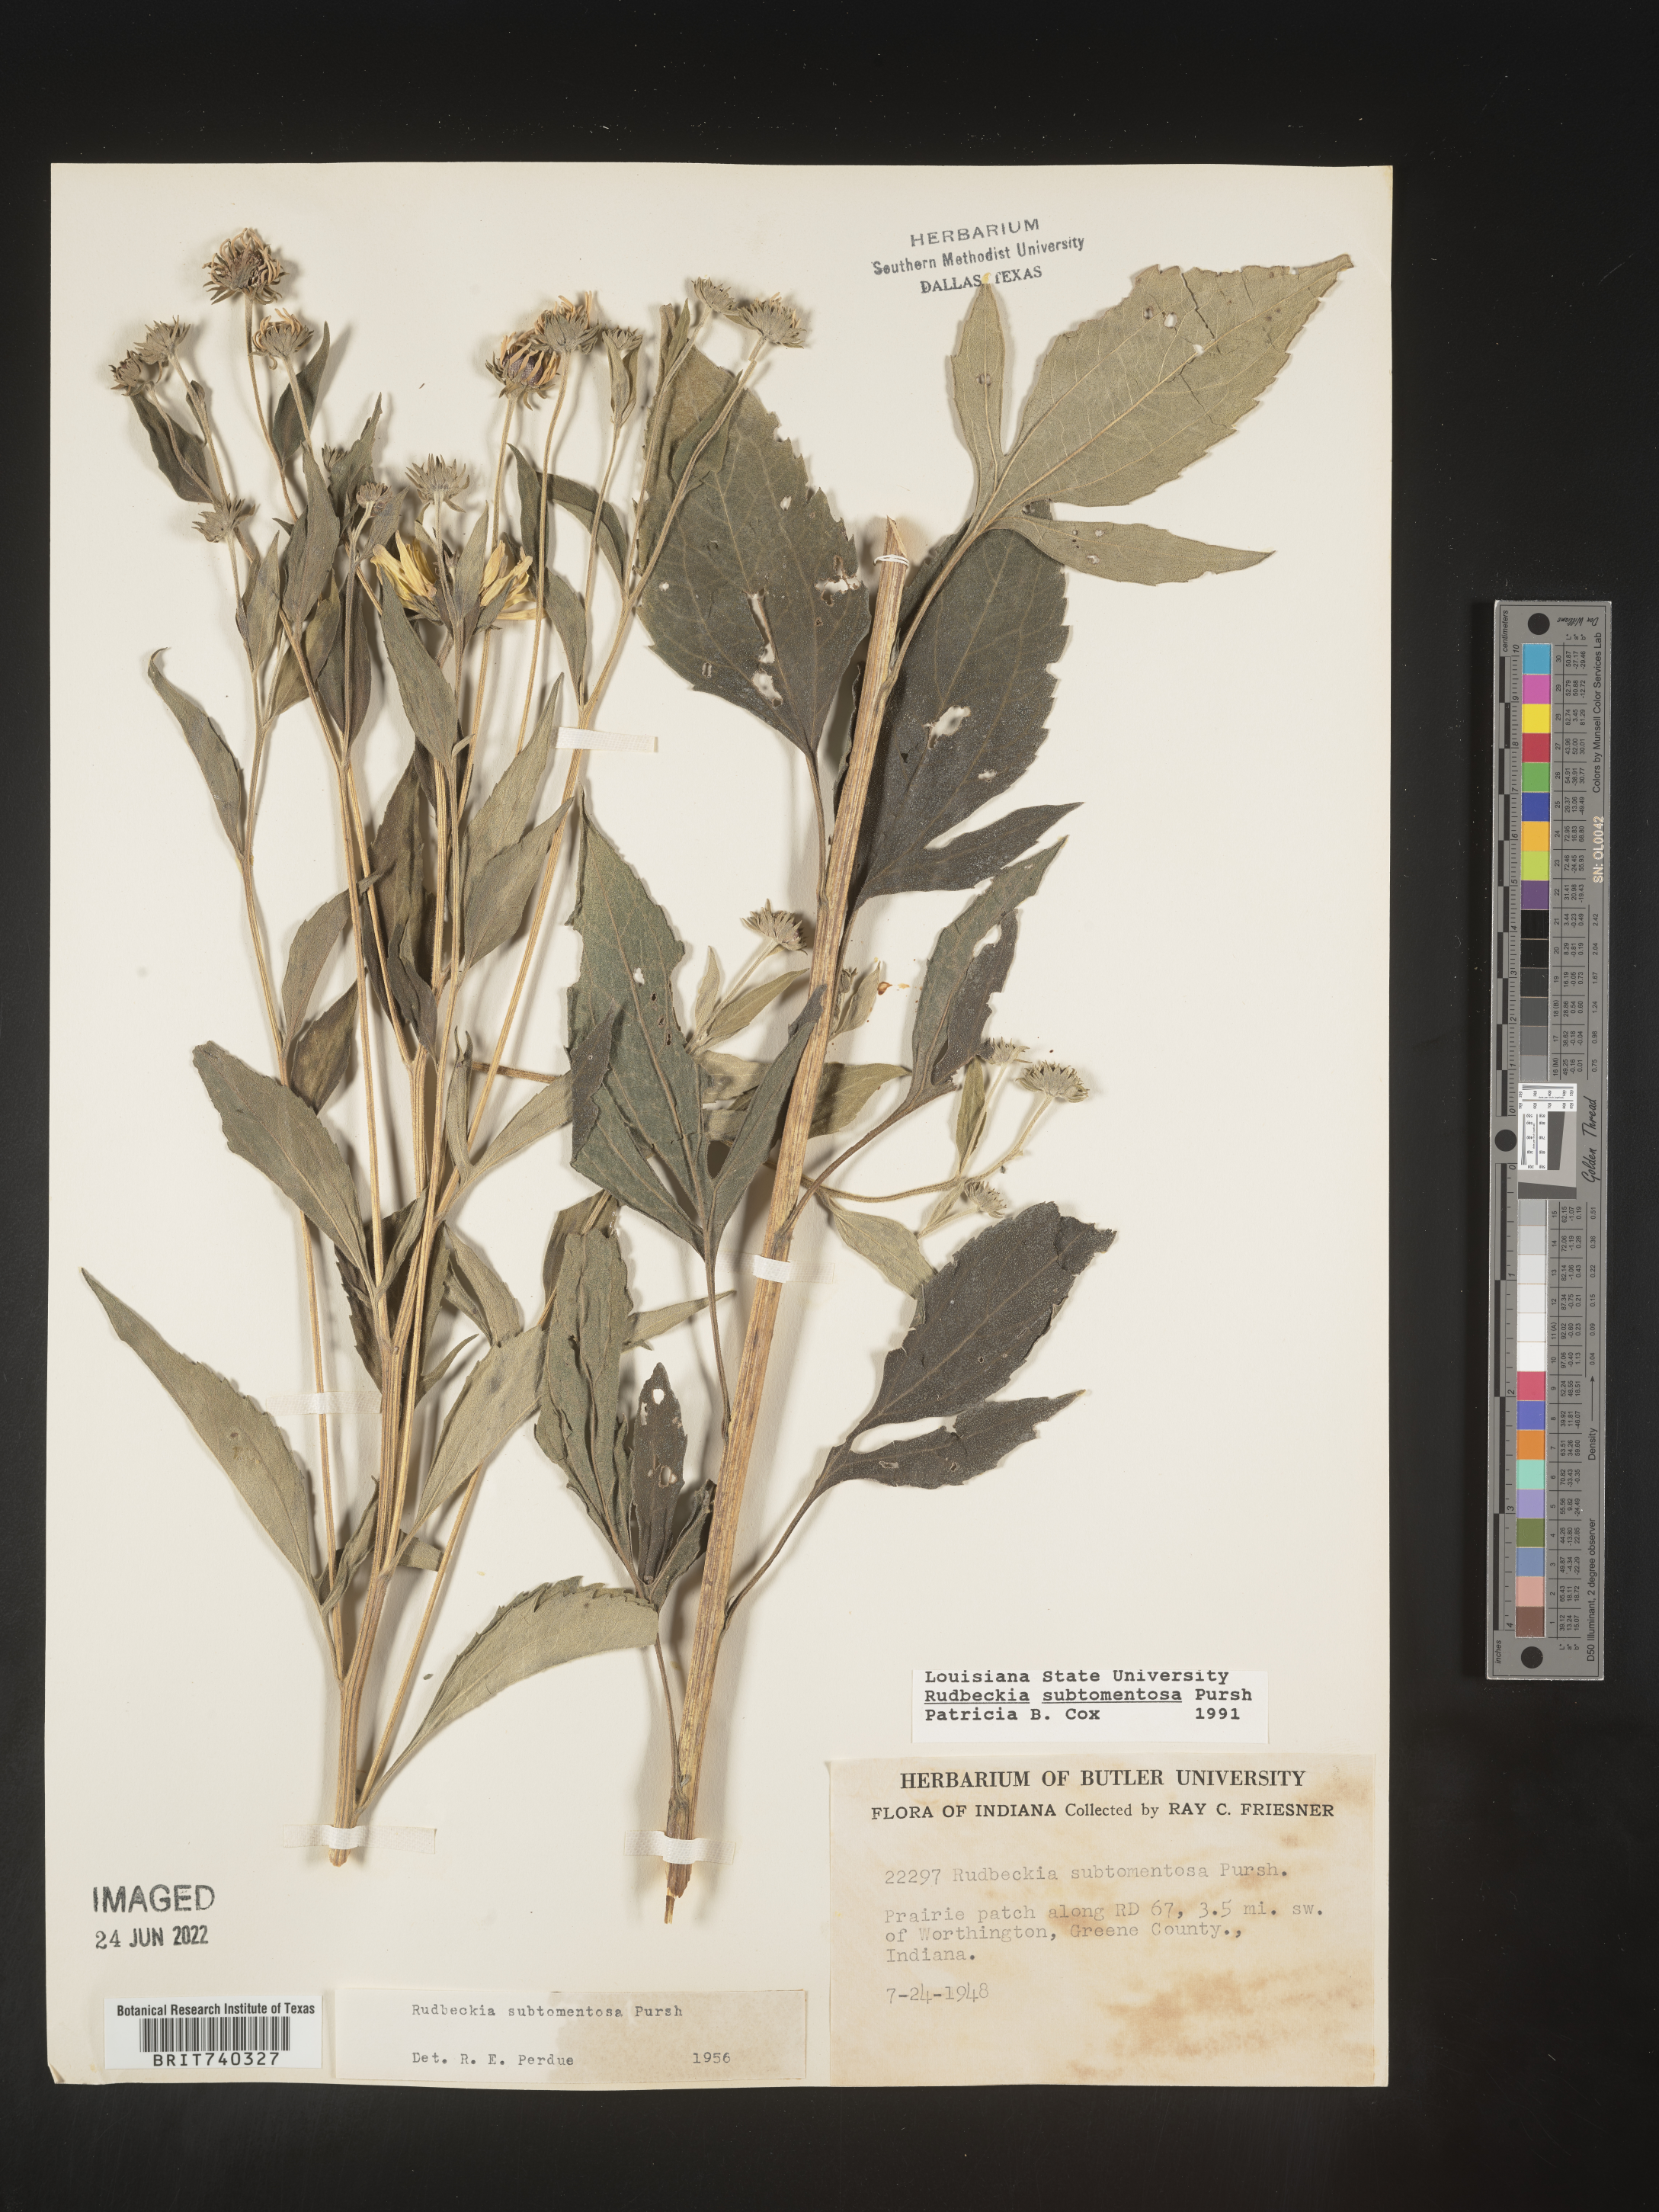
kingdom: Plantae
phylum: Tracheophyta
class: Magnoliopsida
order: Asterales
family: Asteraceae
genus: Rudbeckia
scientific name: Rudbeckia subtomentosa
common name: Sweet coneflower
